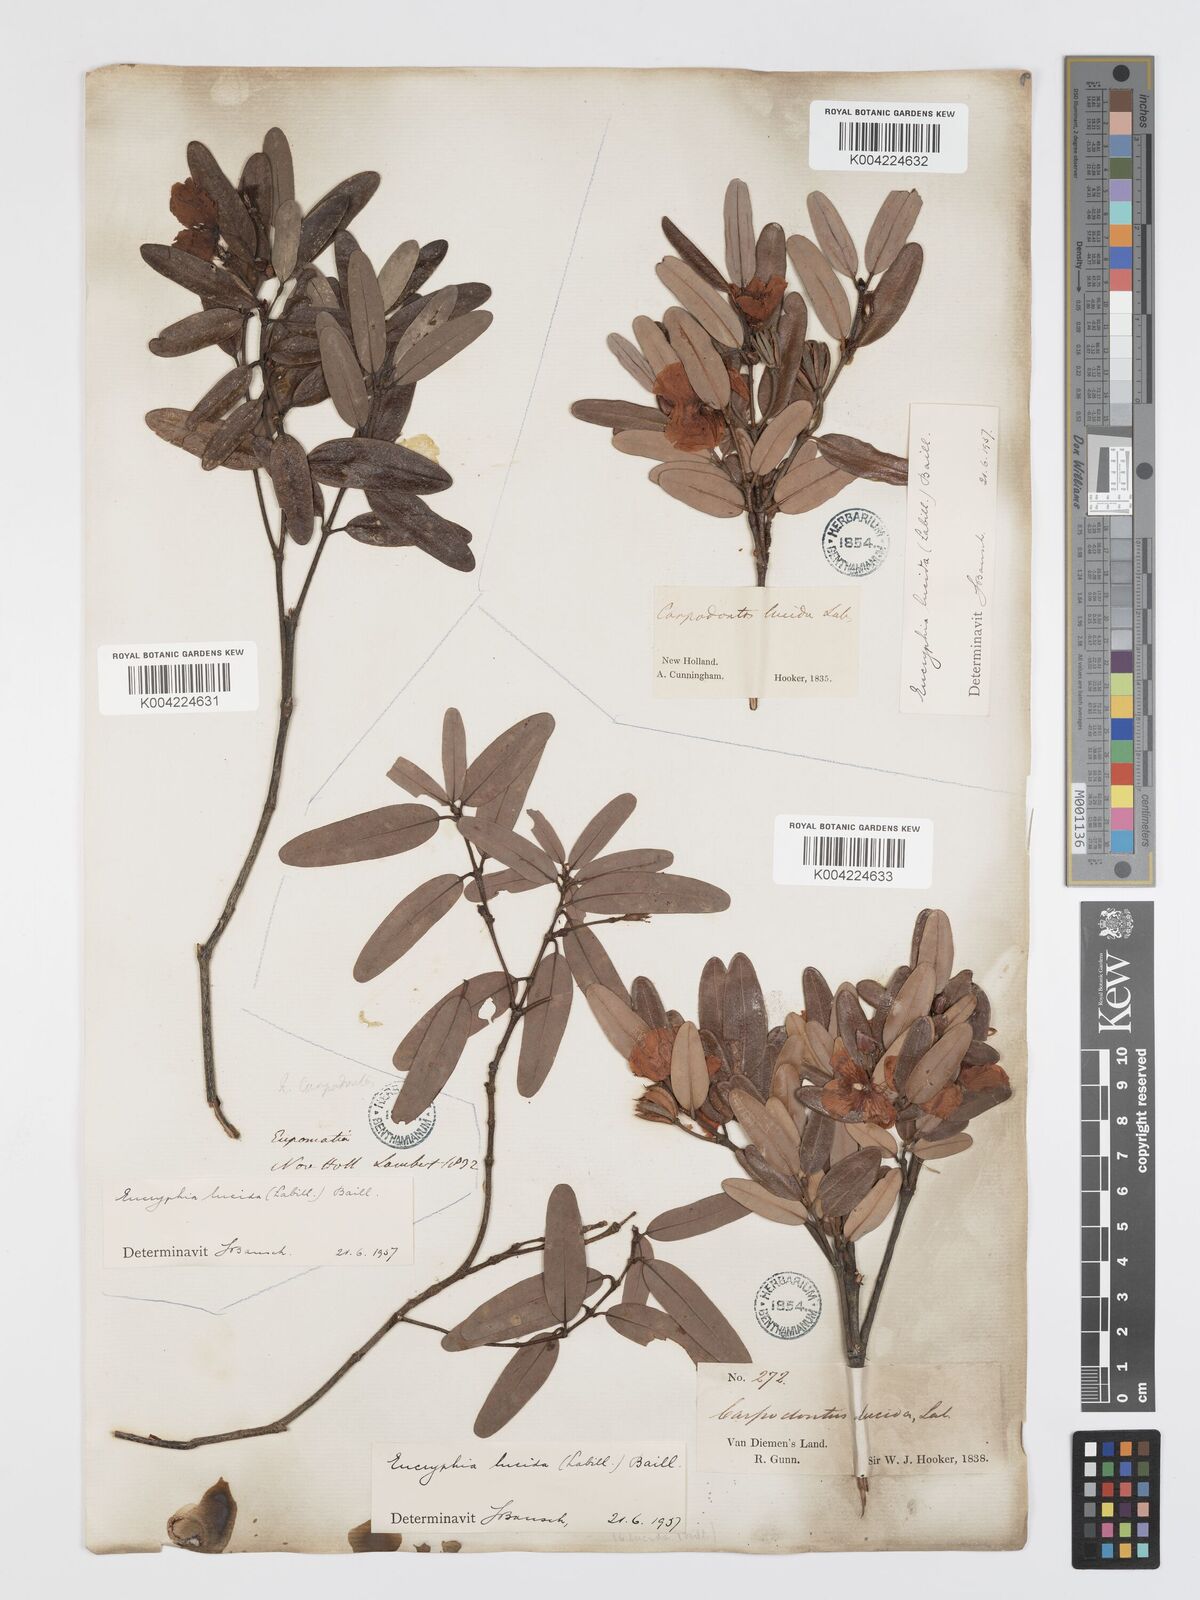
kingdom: Plantae
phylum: Tracheophyta
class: Magnoliopsida
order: Oxalidales
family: Cunoniaceae
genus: Eucryphia
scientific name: Eucryphia lucida
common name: Leatherwood
